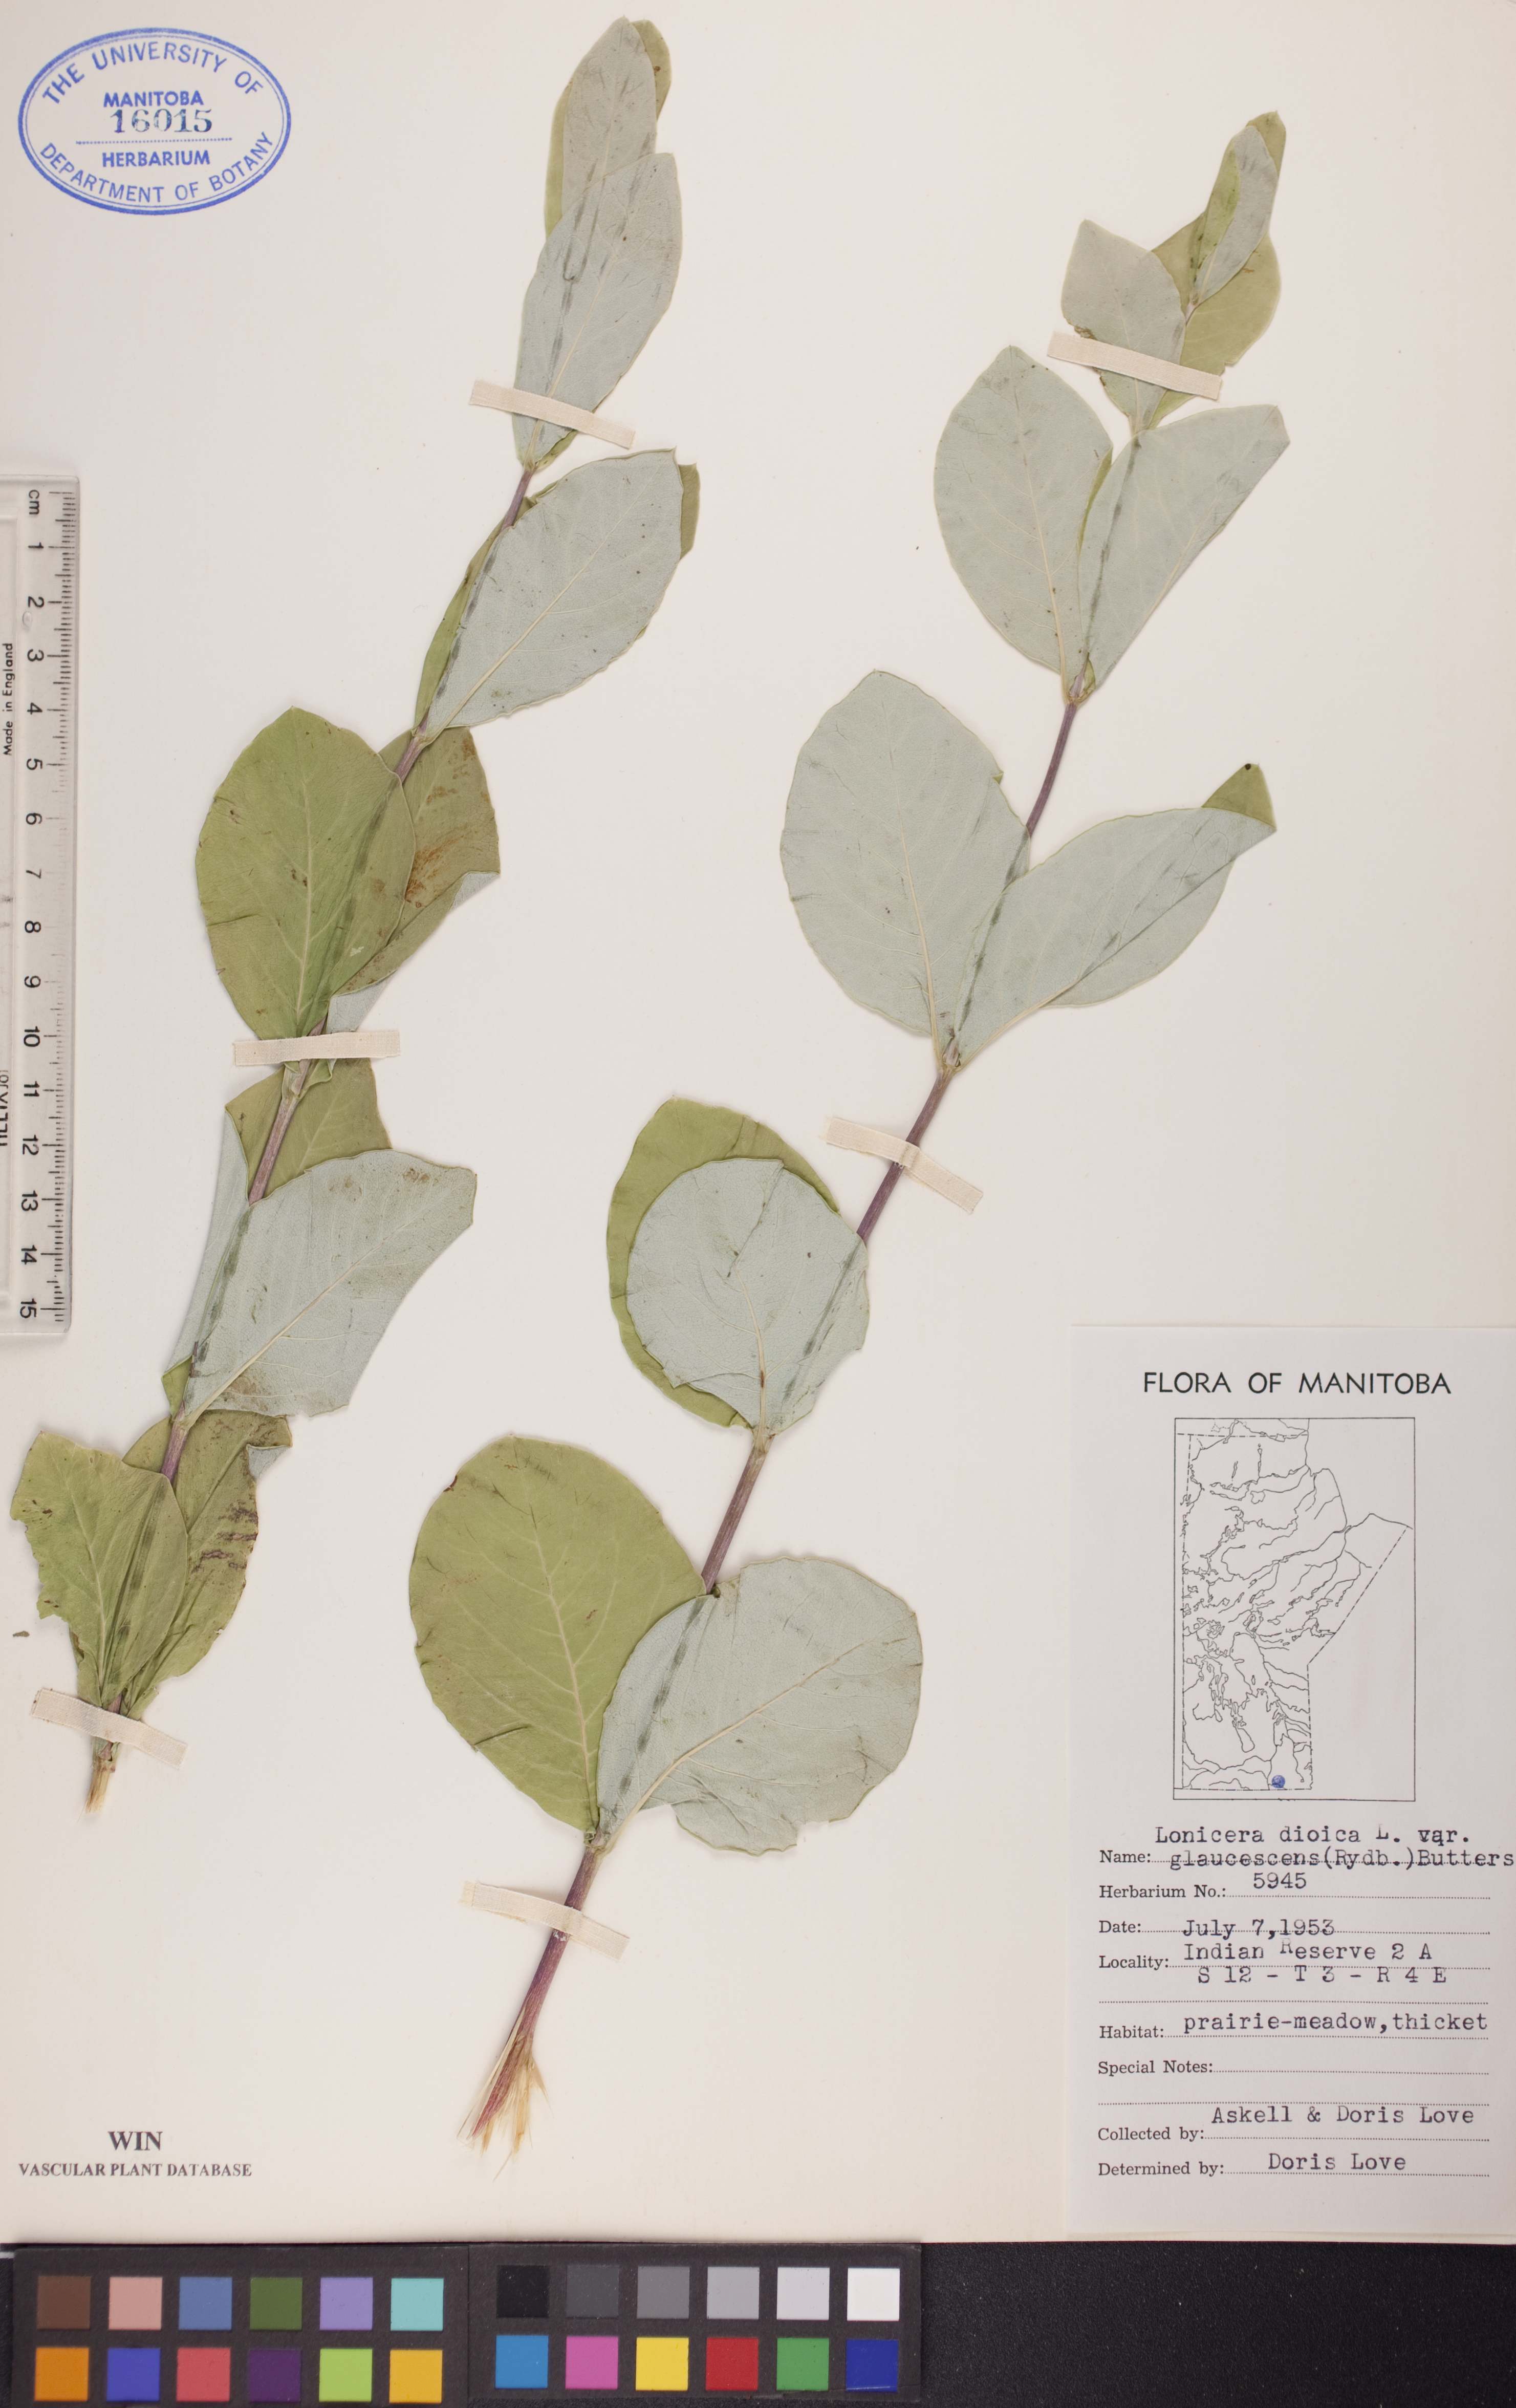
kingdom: Plantae
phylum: Tracheophyta
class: Magnoliopsida
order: Dipsacales
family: Caprifoliaceae
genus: Lonicera
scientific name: Lonicera dioica
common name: Limber honeysuckle
